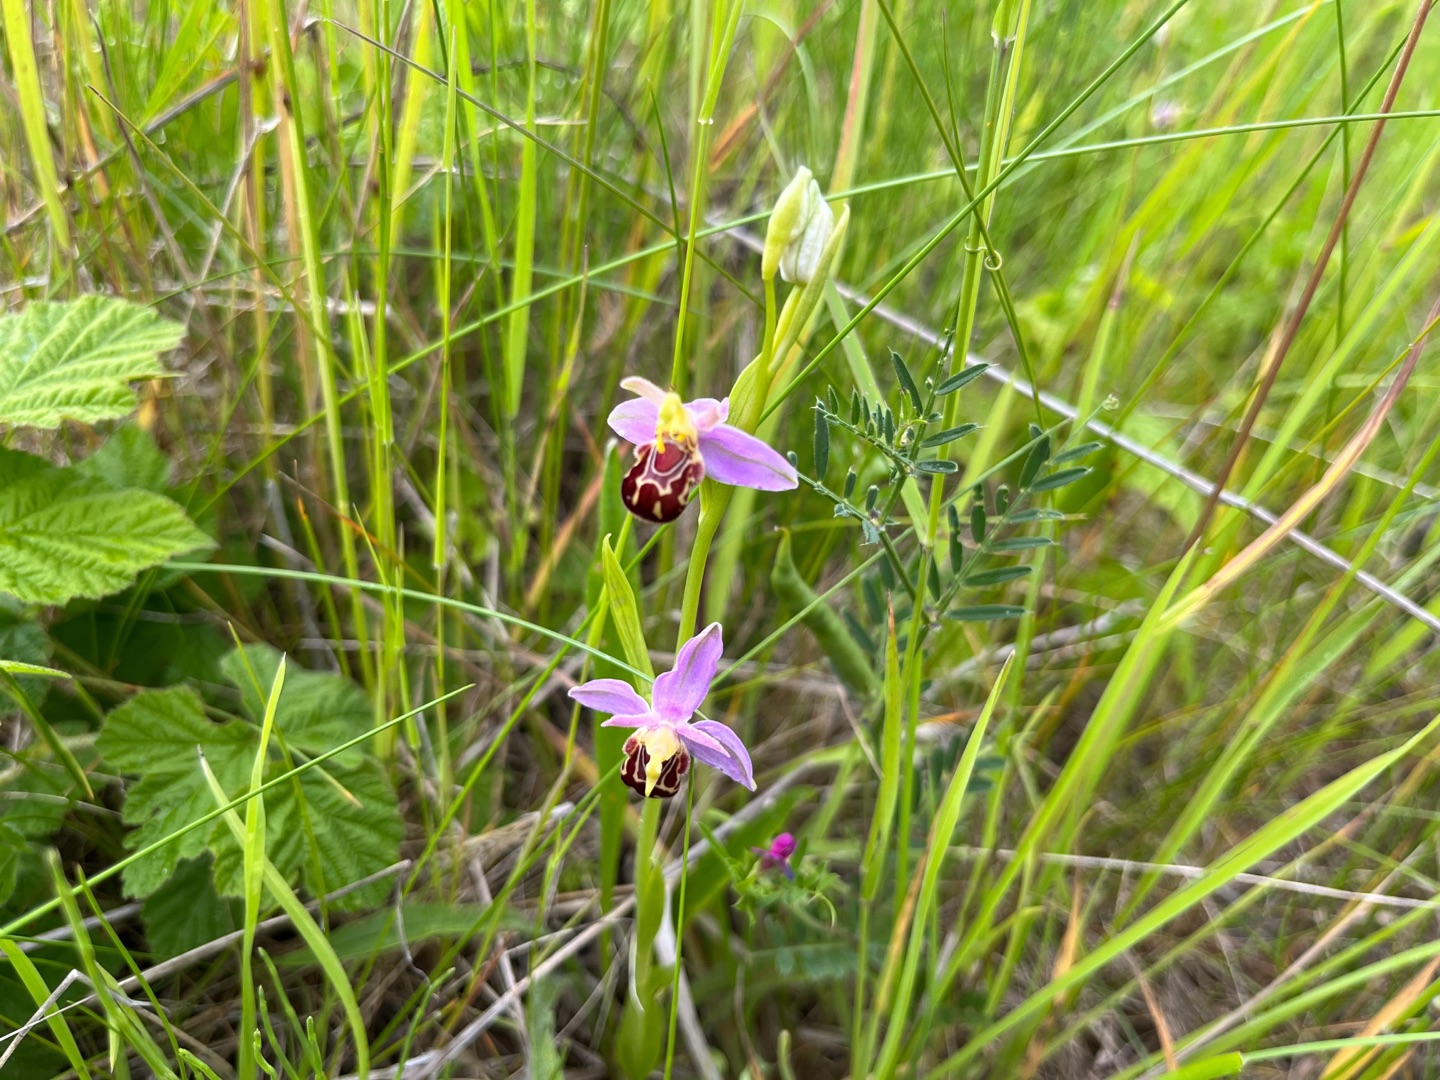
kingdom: Plantae
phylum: Tracheophyta
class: Liliopsida
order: Asparagales
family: Orchidaceae
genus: Ophrys
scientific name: Ophrys apifera
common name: Biblomst
